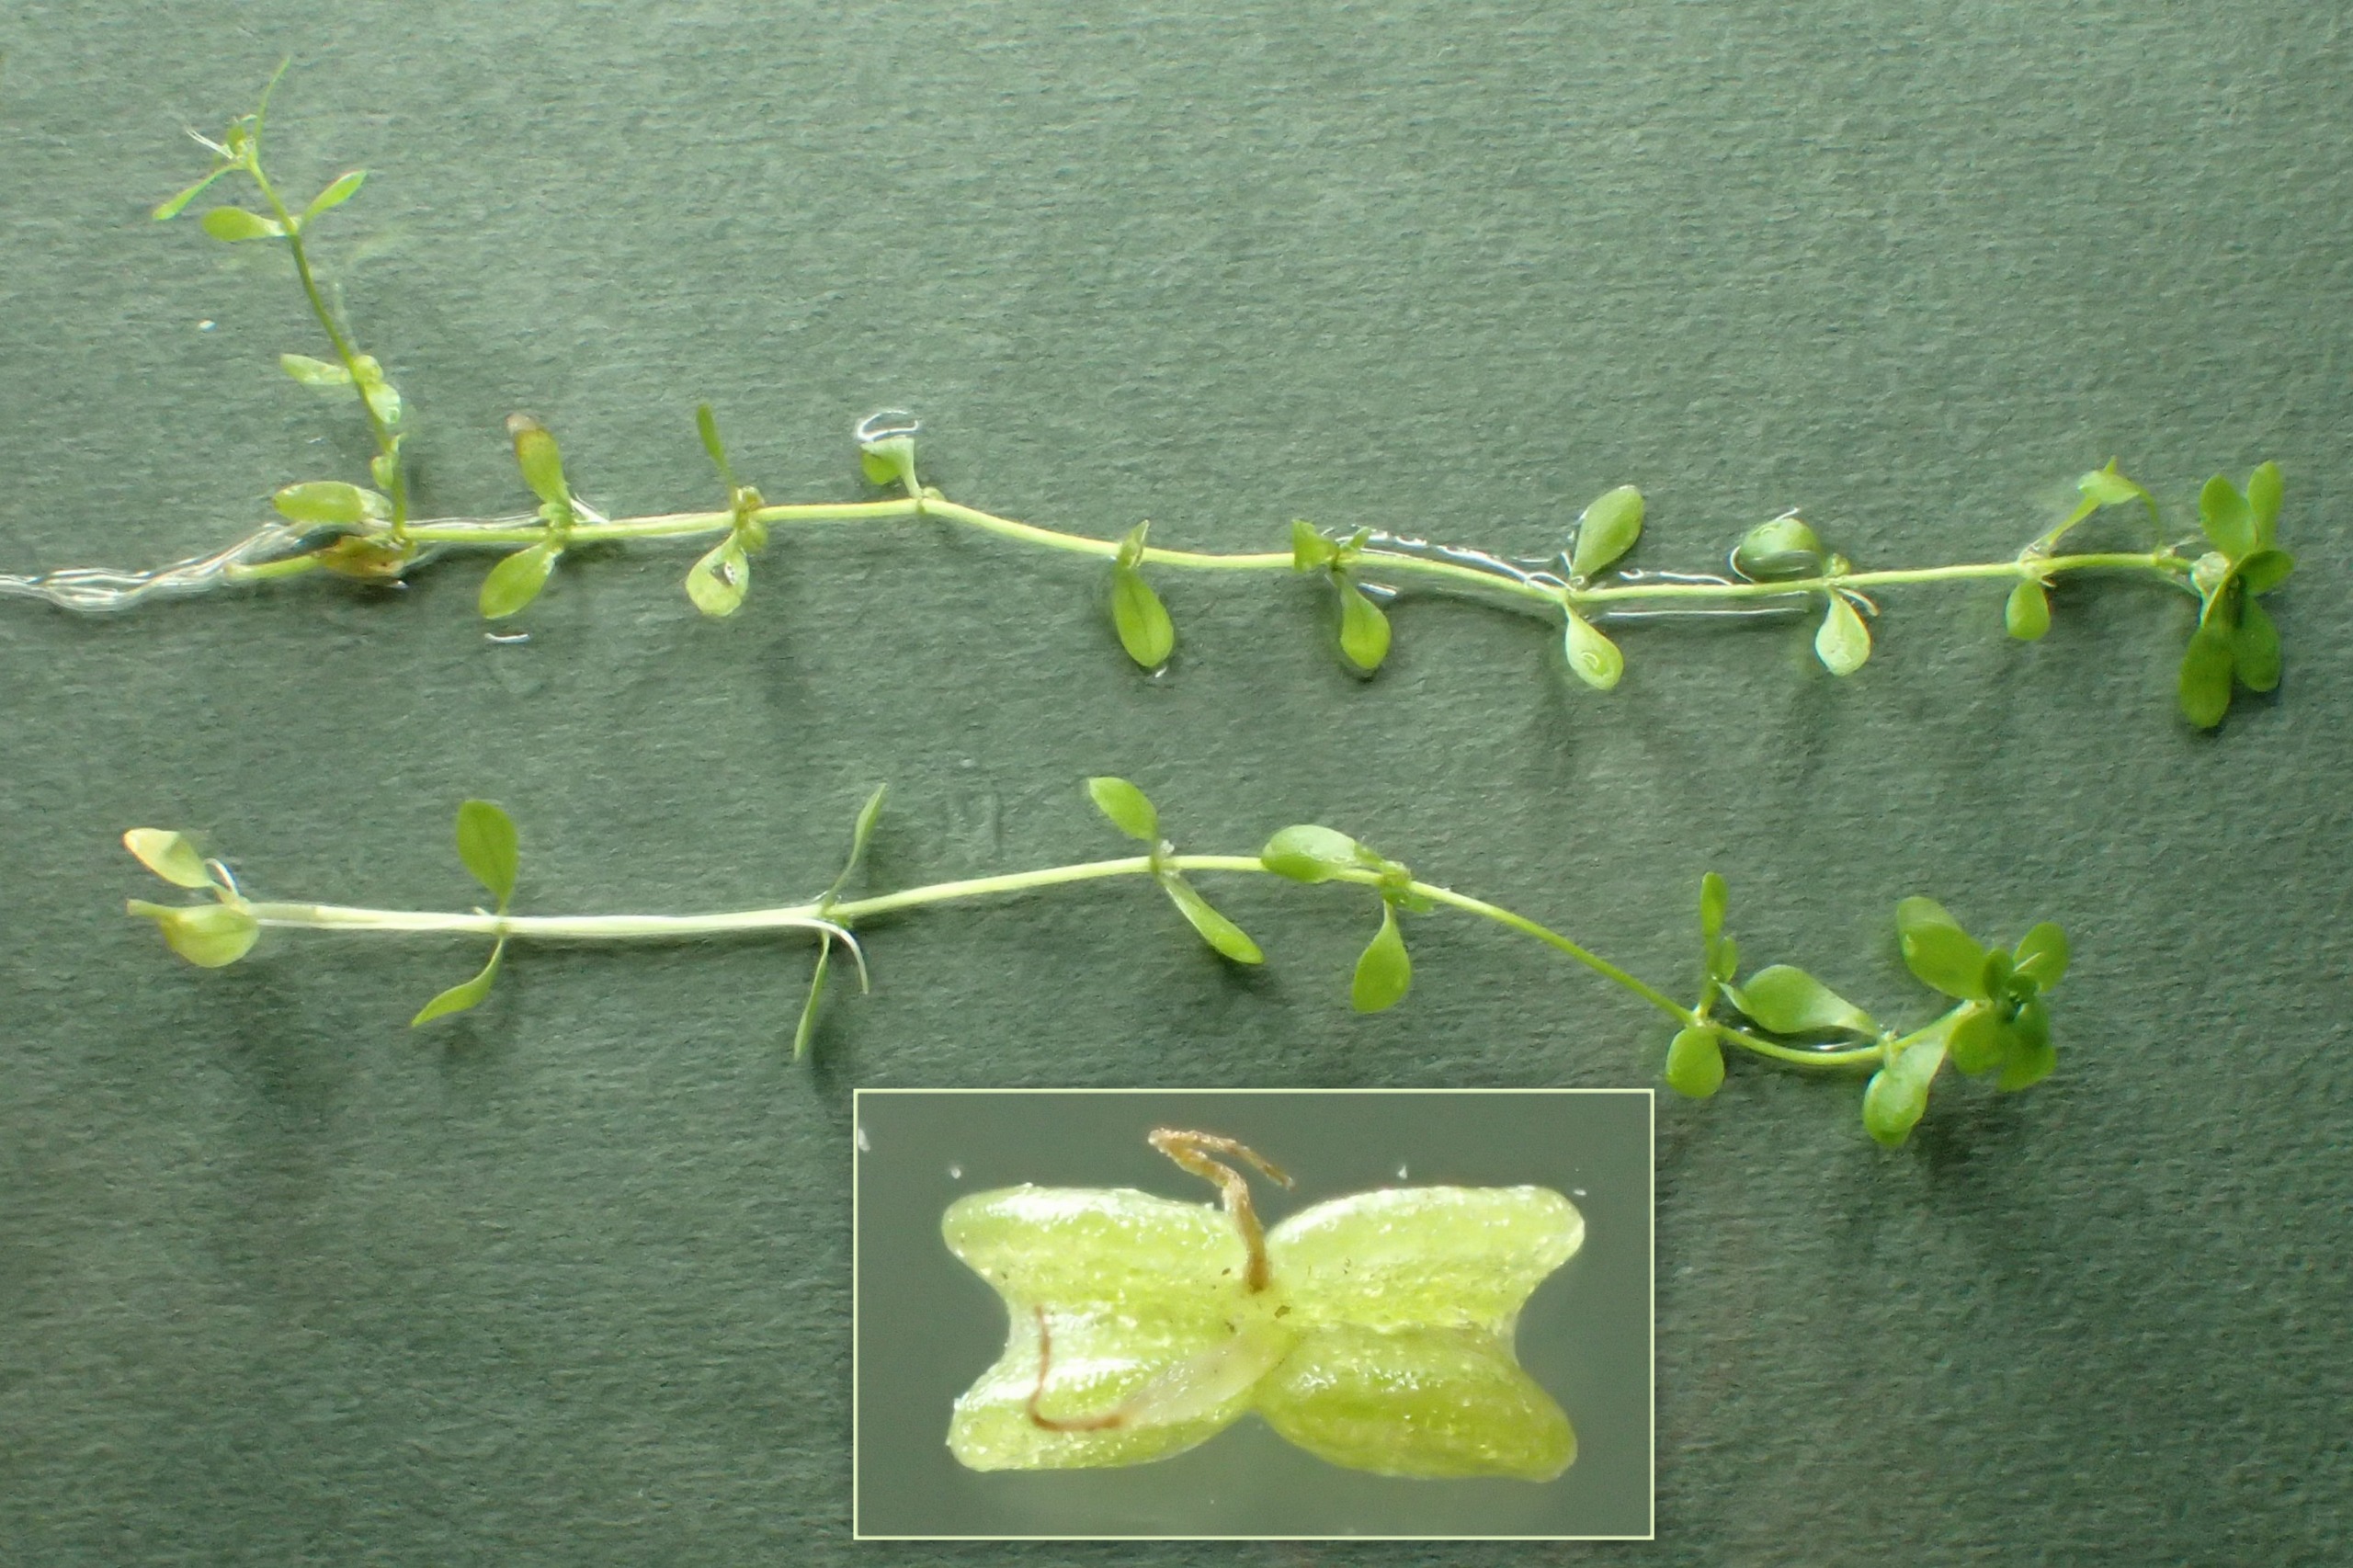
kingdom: Plantae
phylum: Tracheophyta
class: Magnoliopsida
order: Lamiales
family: Plantaginaceae
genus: Callitriche
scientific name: Callitriche stagnalis
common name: Storfrugtet vandstjerne
